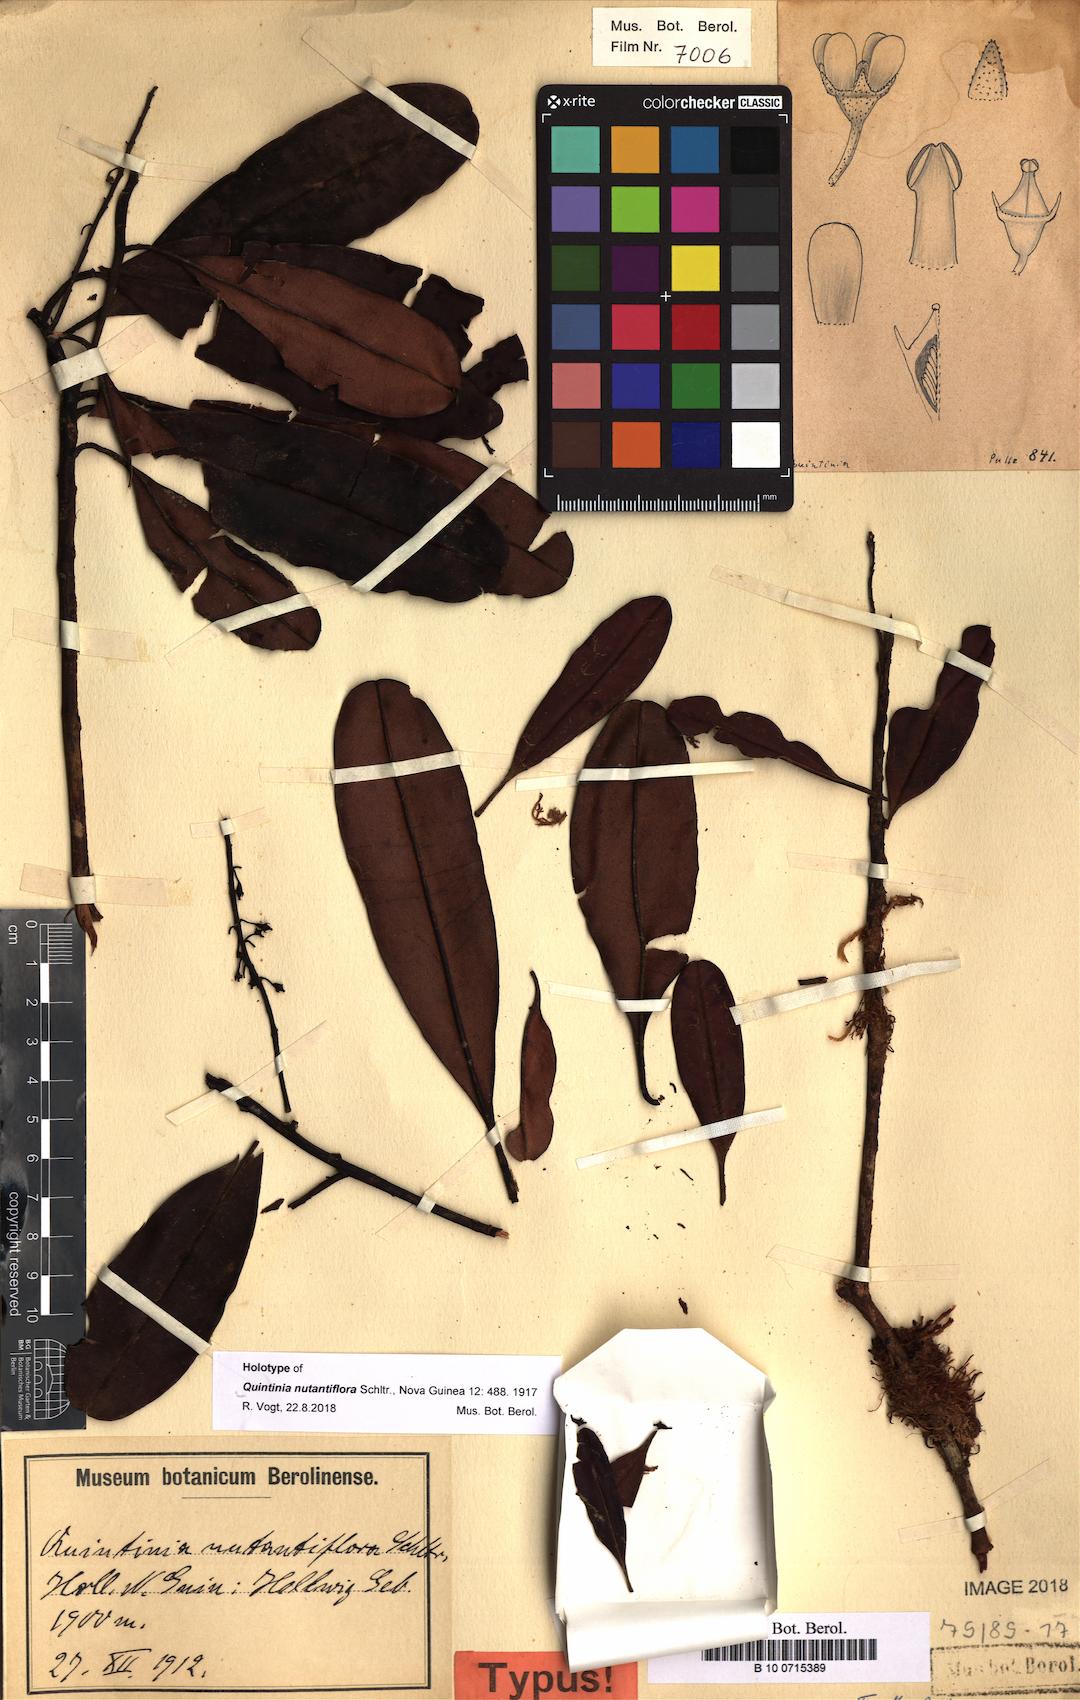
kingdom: Plantae
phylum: Tracheophyta
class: Magnoliopsida
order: Paracryphiales
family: Paracryphiaceae
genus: Quintinia
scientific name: Quintinia nutantiflora
